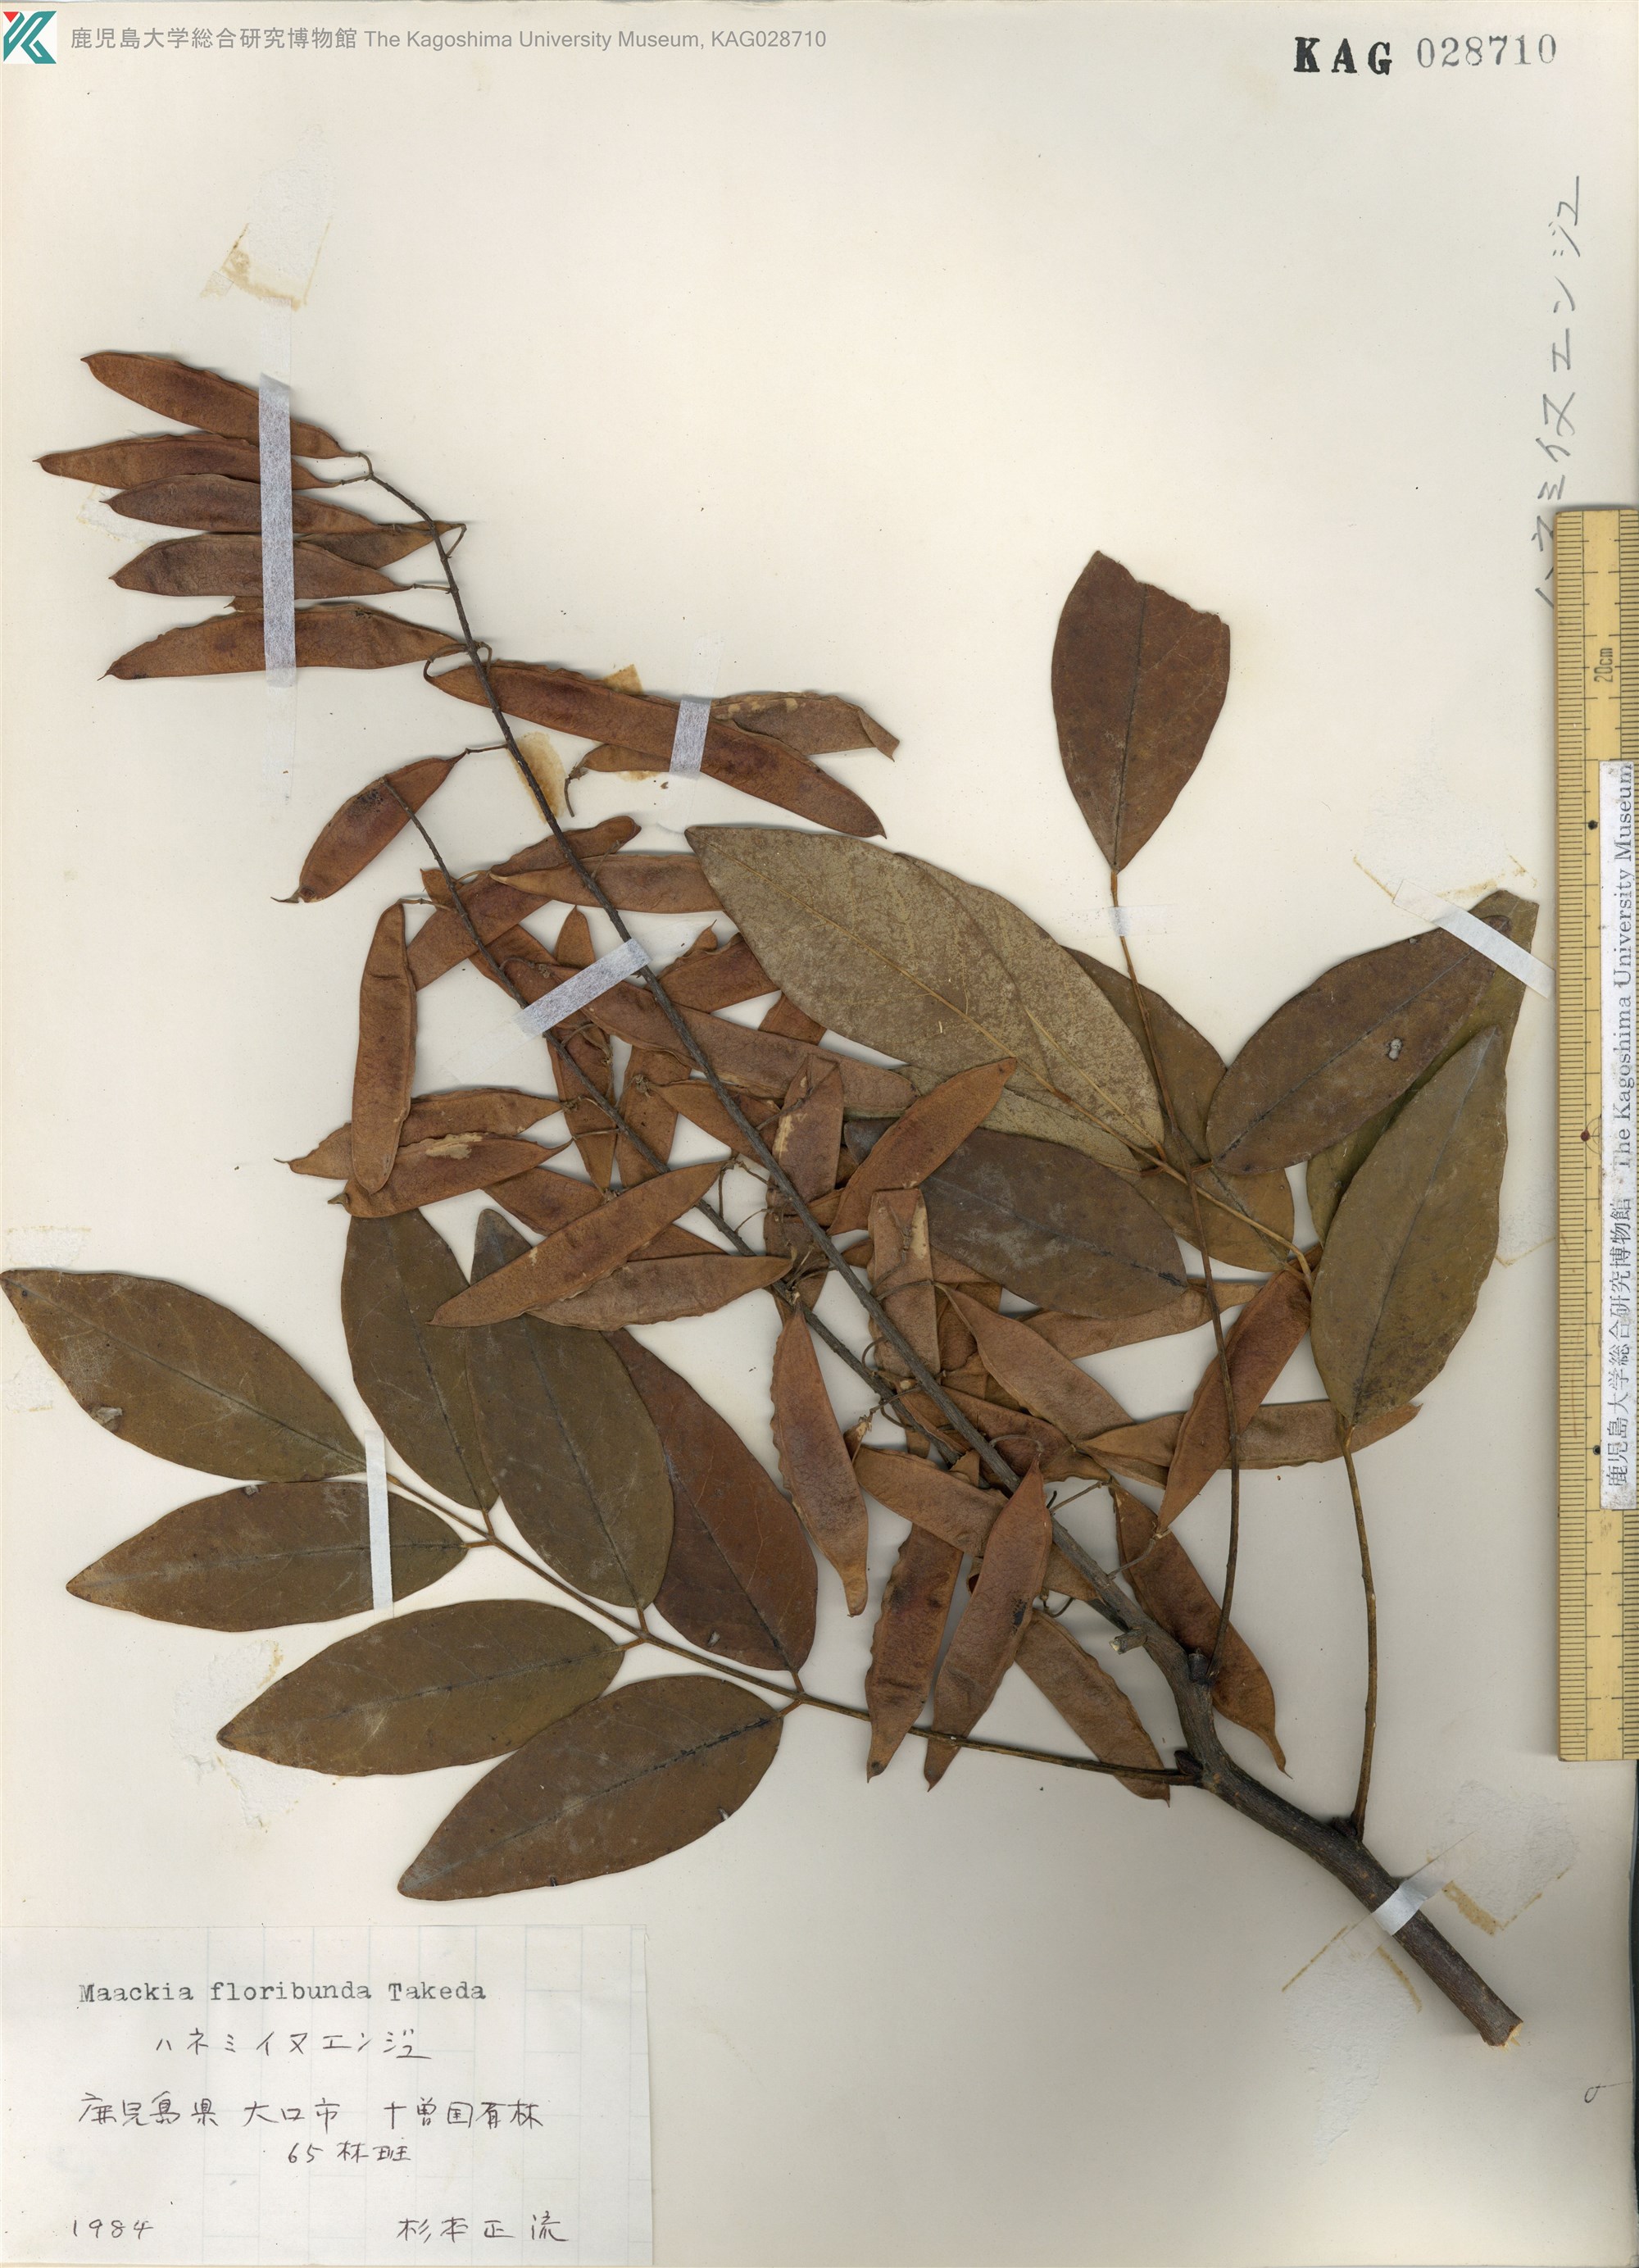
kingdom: Plantae
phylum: Tracheophyta
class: Magnoliopsida
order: Fabales
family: Fabaceae
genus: Maackia
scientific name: Maackia amurensis
